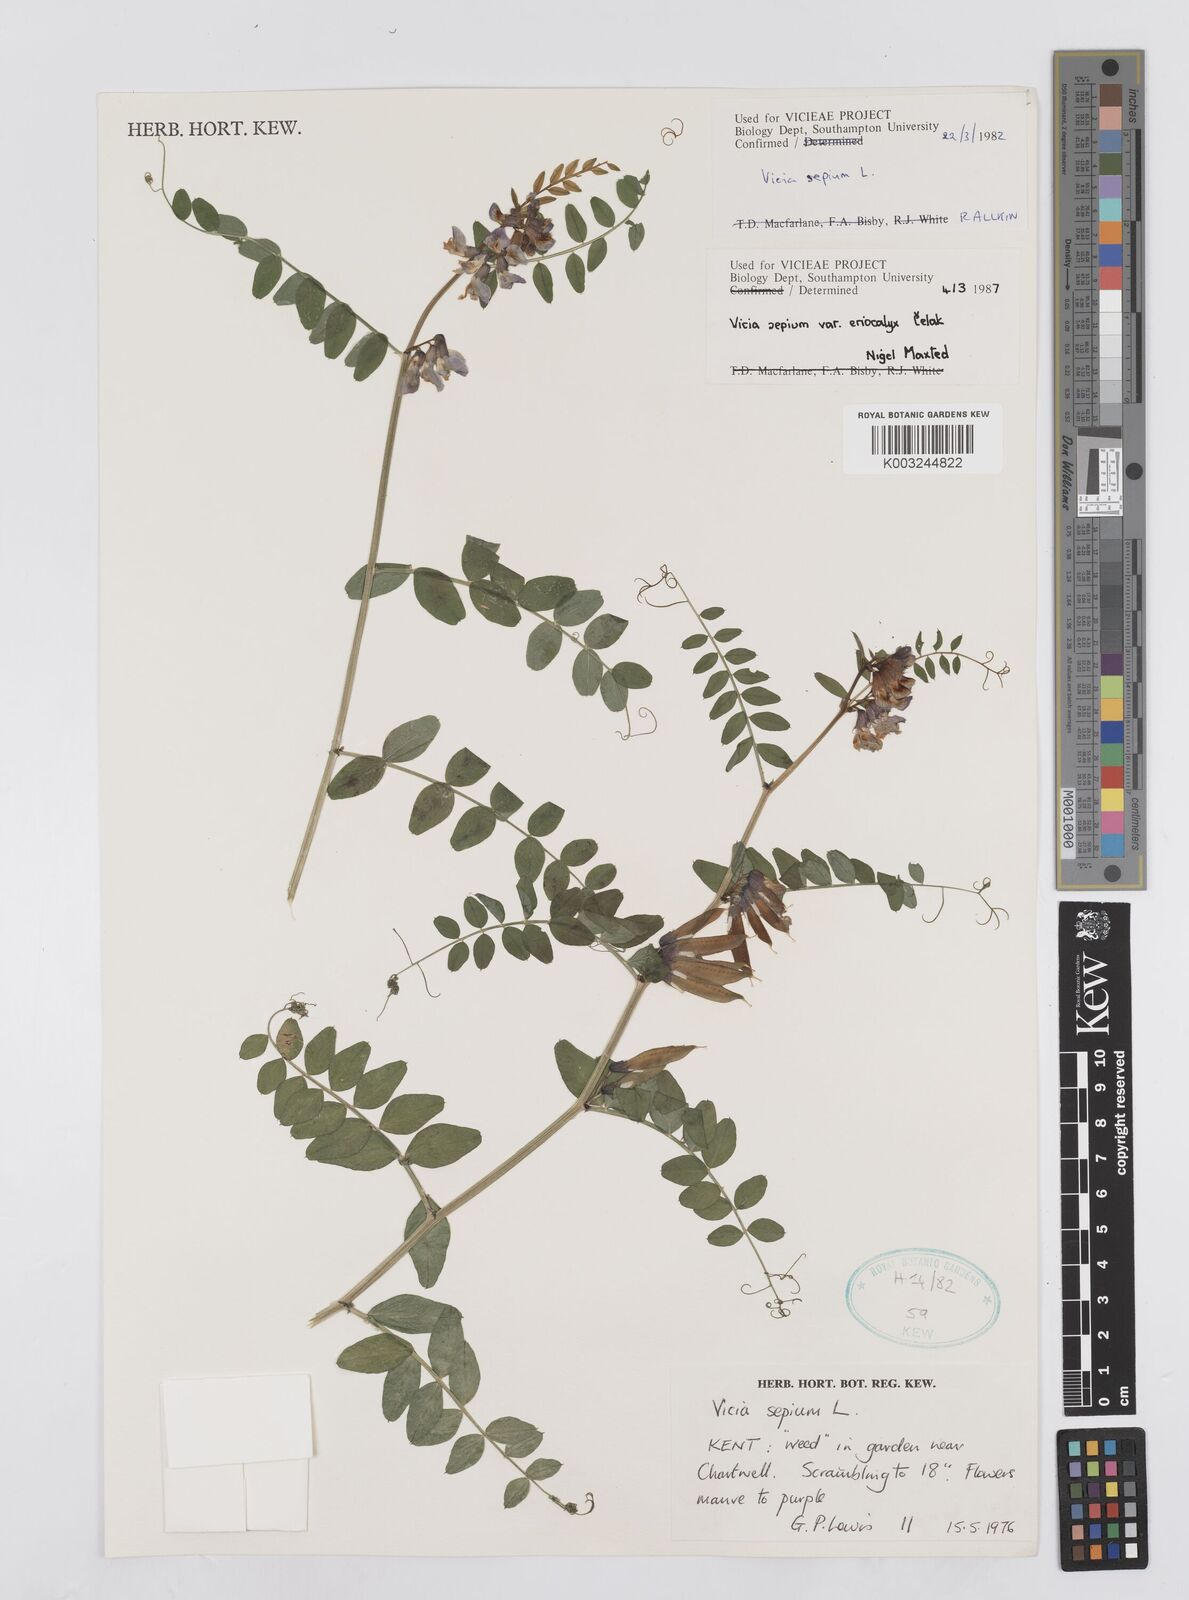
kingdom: Plantae
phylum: Tracheophyta
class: Magnoliopsida
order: Fabales
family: Fabaceae
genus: Vicia
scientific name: Vicia sepium
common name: Bush vetch
